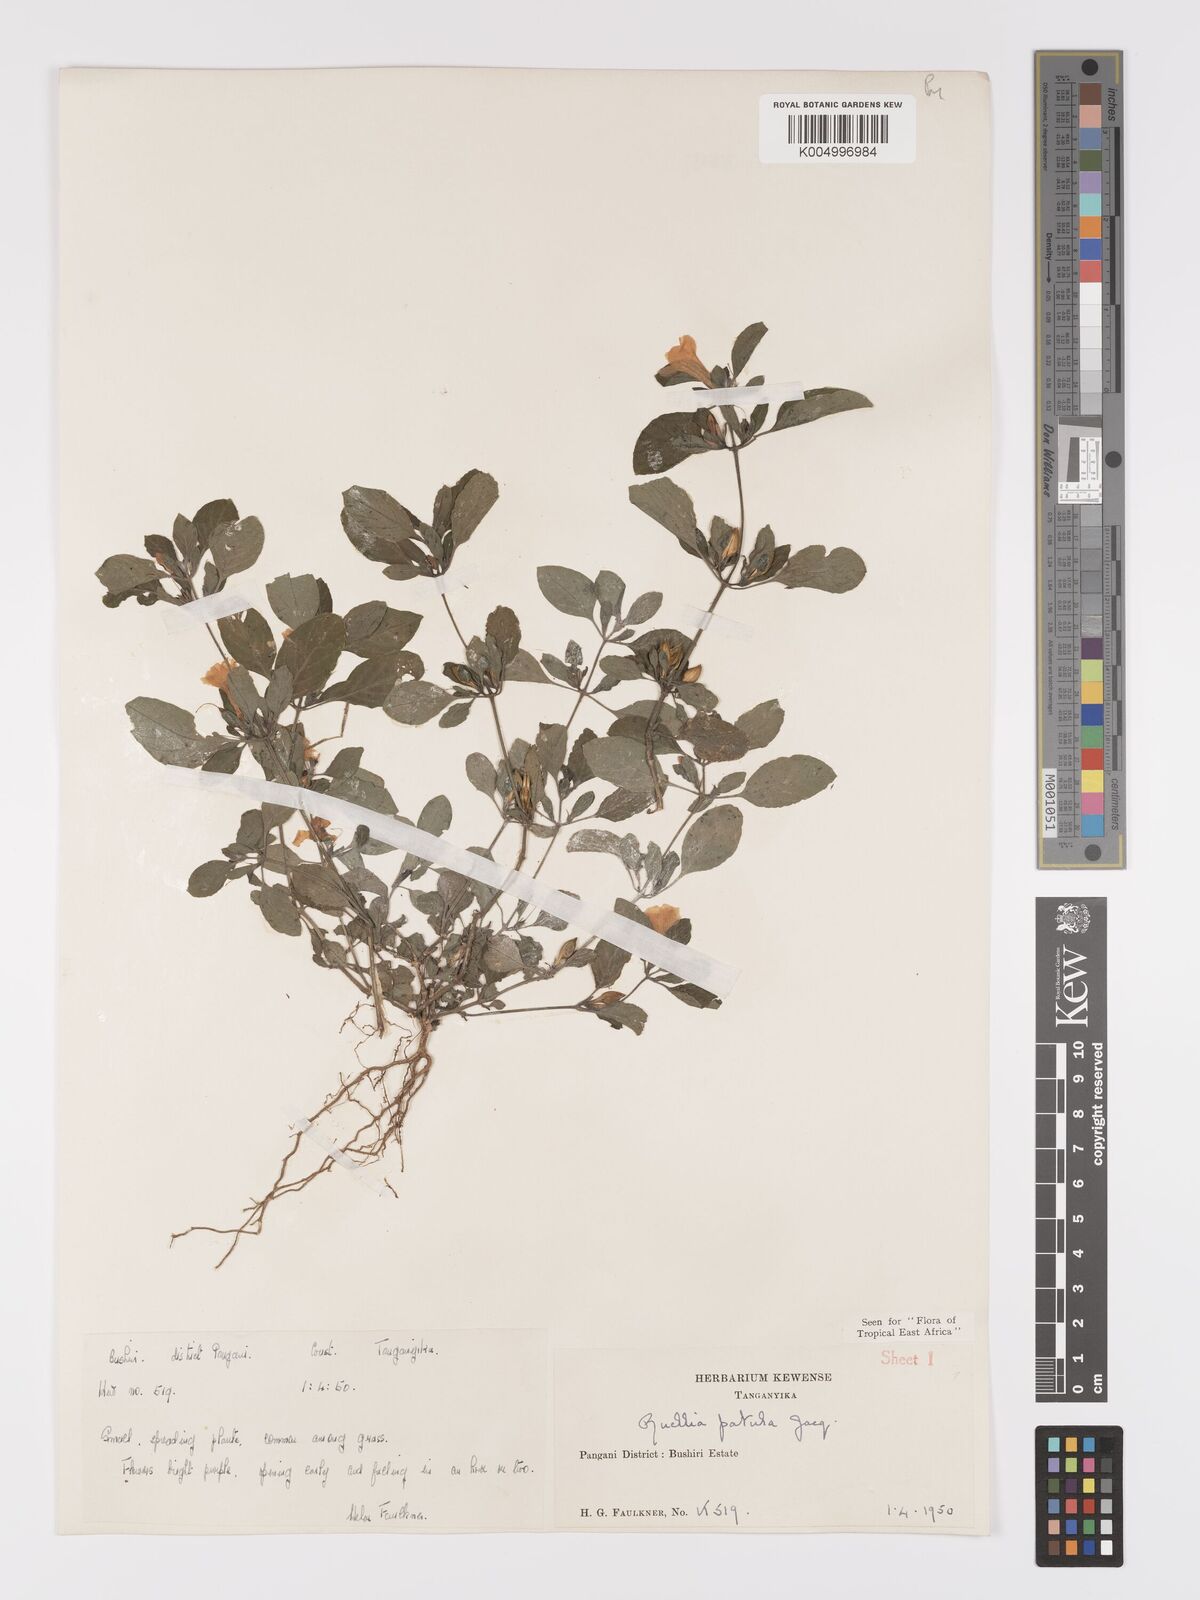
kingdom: Plantae
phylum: Tracheophyta
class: Magnoliopsida
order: Lamiales
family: Acanthaceae
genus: Ruellia
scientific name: Ruellia patula
